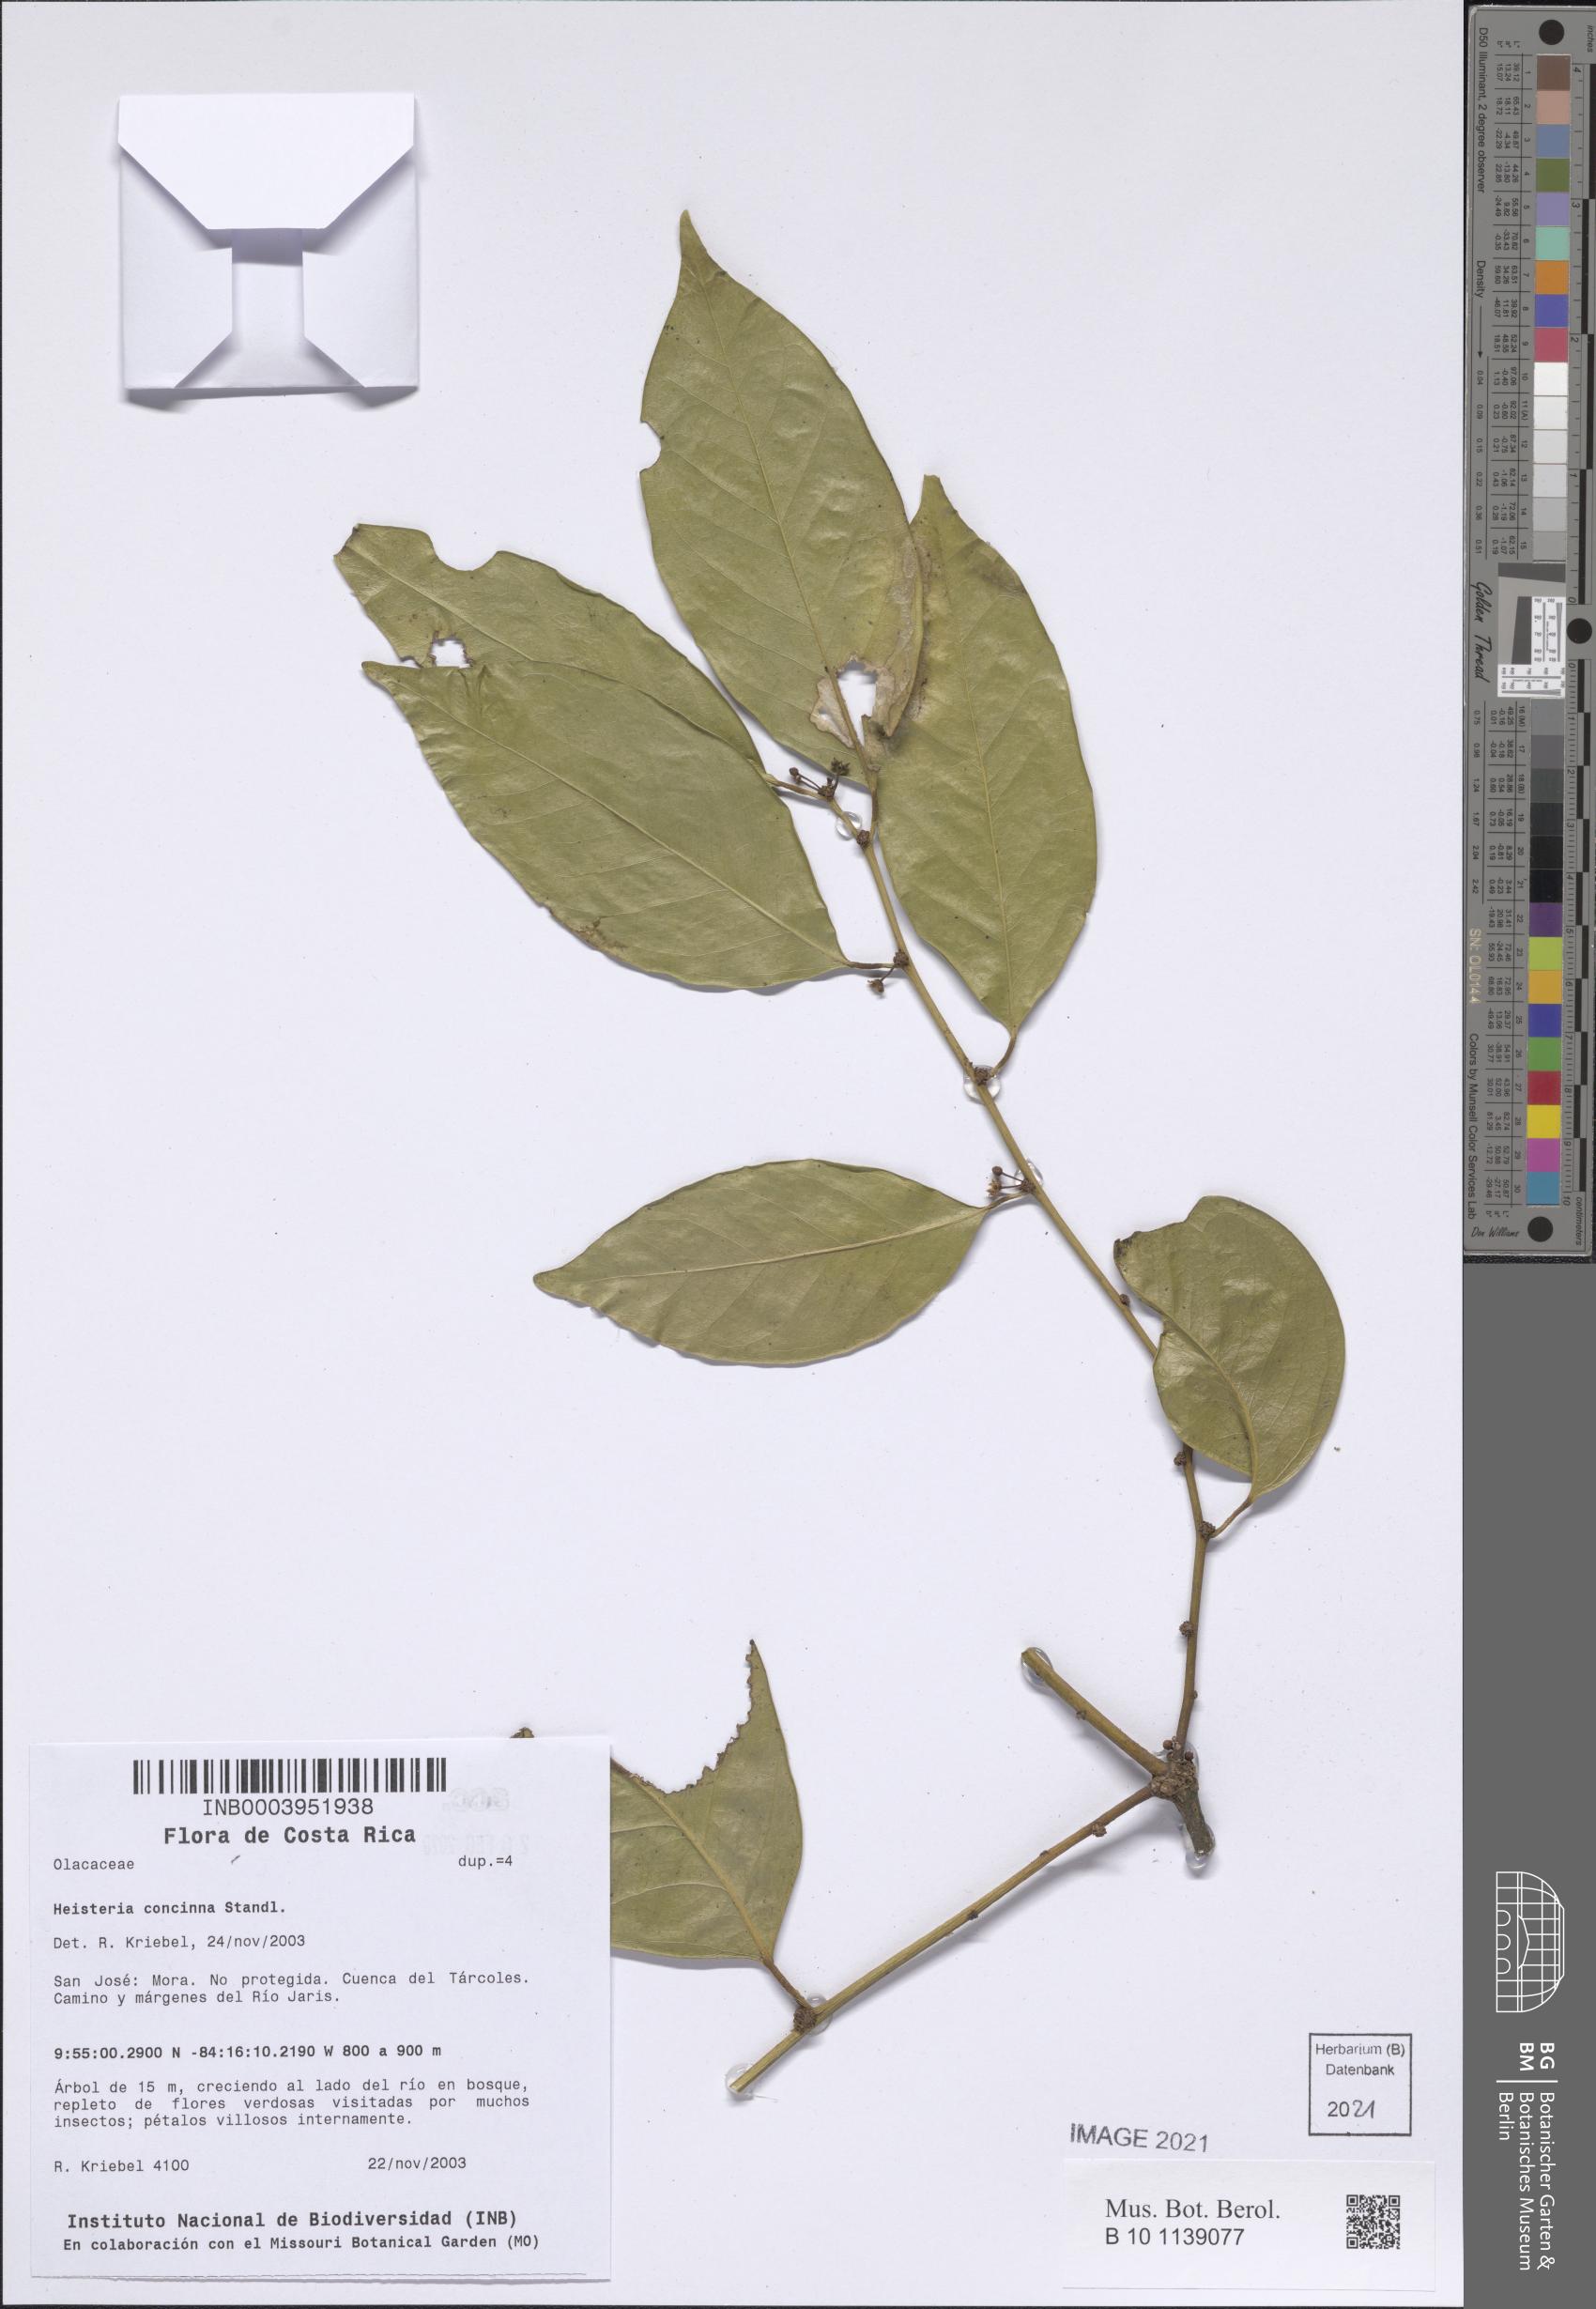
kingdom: Plantae
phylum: Tracheophyta
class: Magnoliopsida
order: Santalales
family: Erythropalaceae
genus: Heisteria
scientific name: Heisteria concinna
